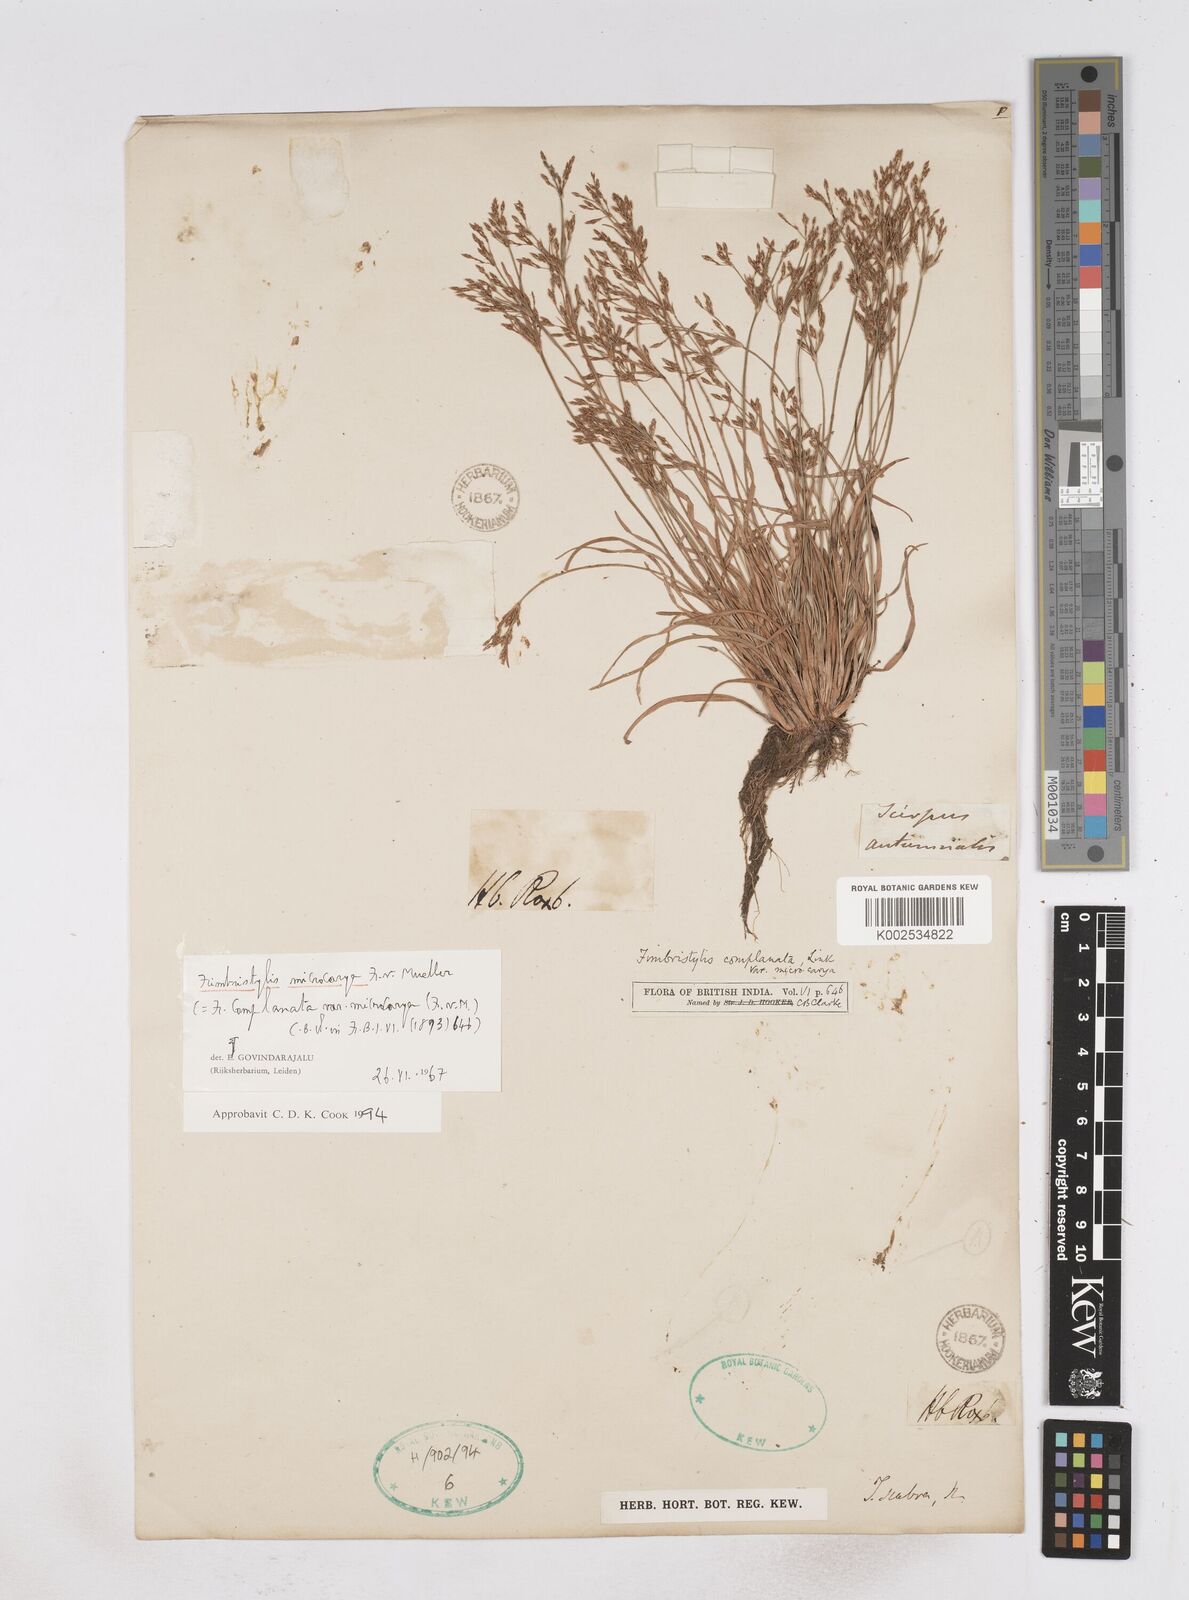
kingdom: Plantae
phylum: Tracheophyta
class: Liliopsida
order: Poales
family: Cyperaceae
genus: Fimbristylis
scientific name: Fimbristylis microcarya
